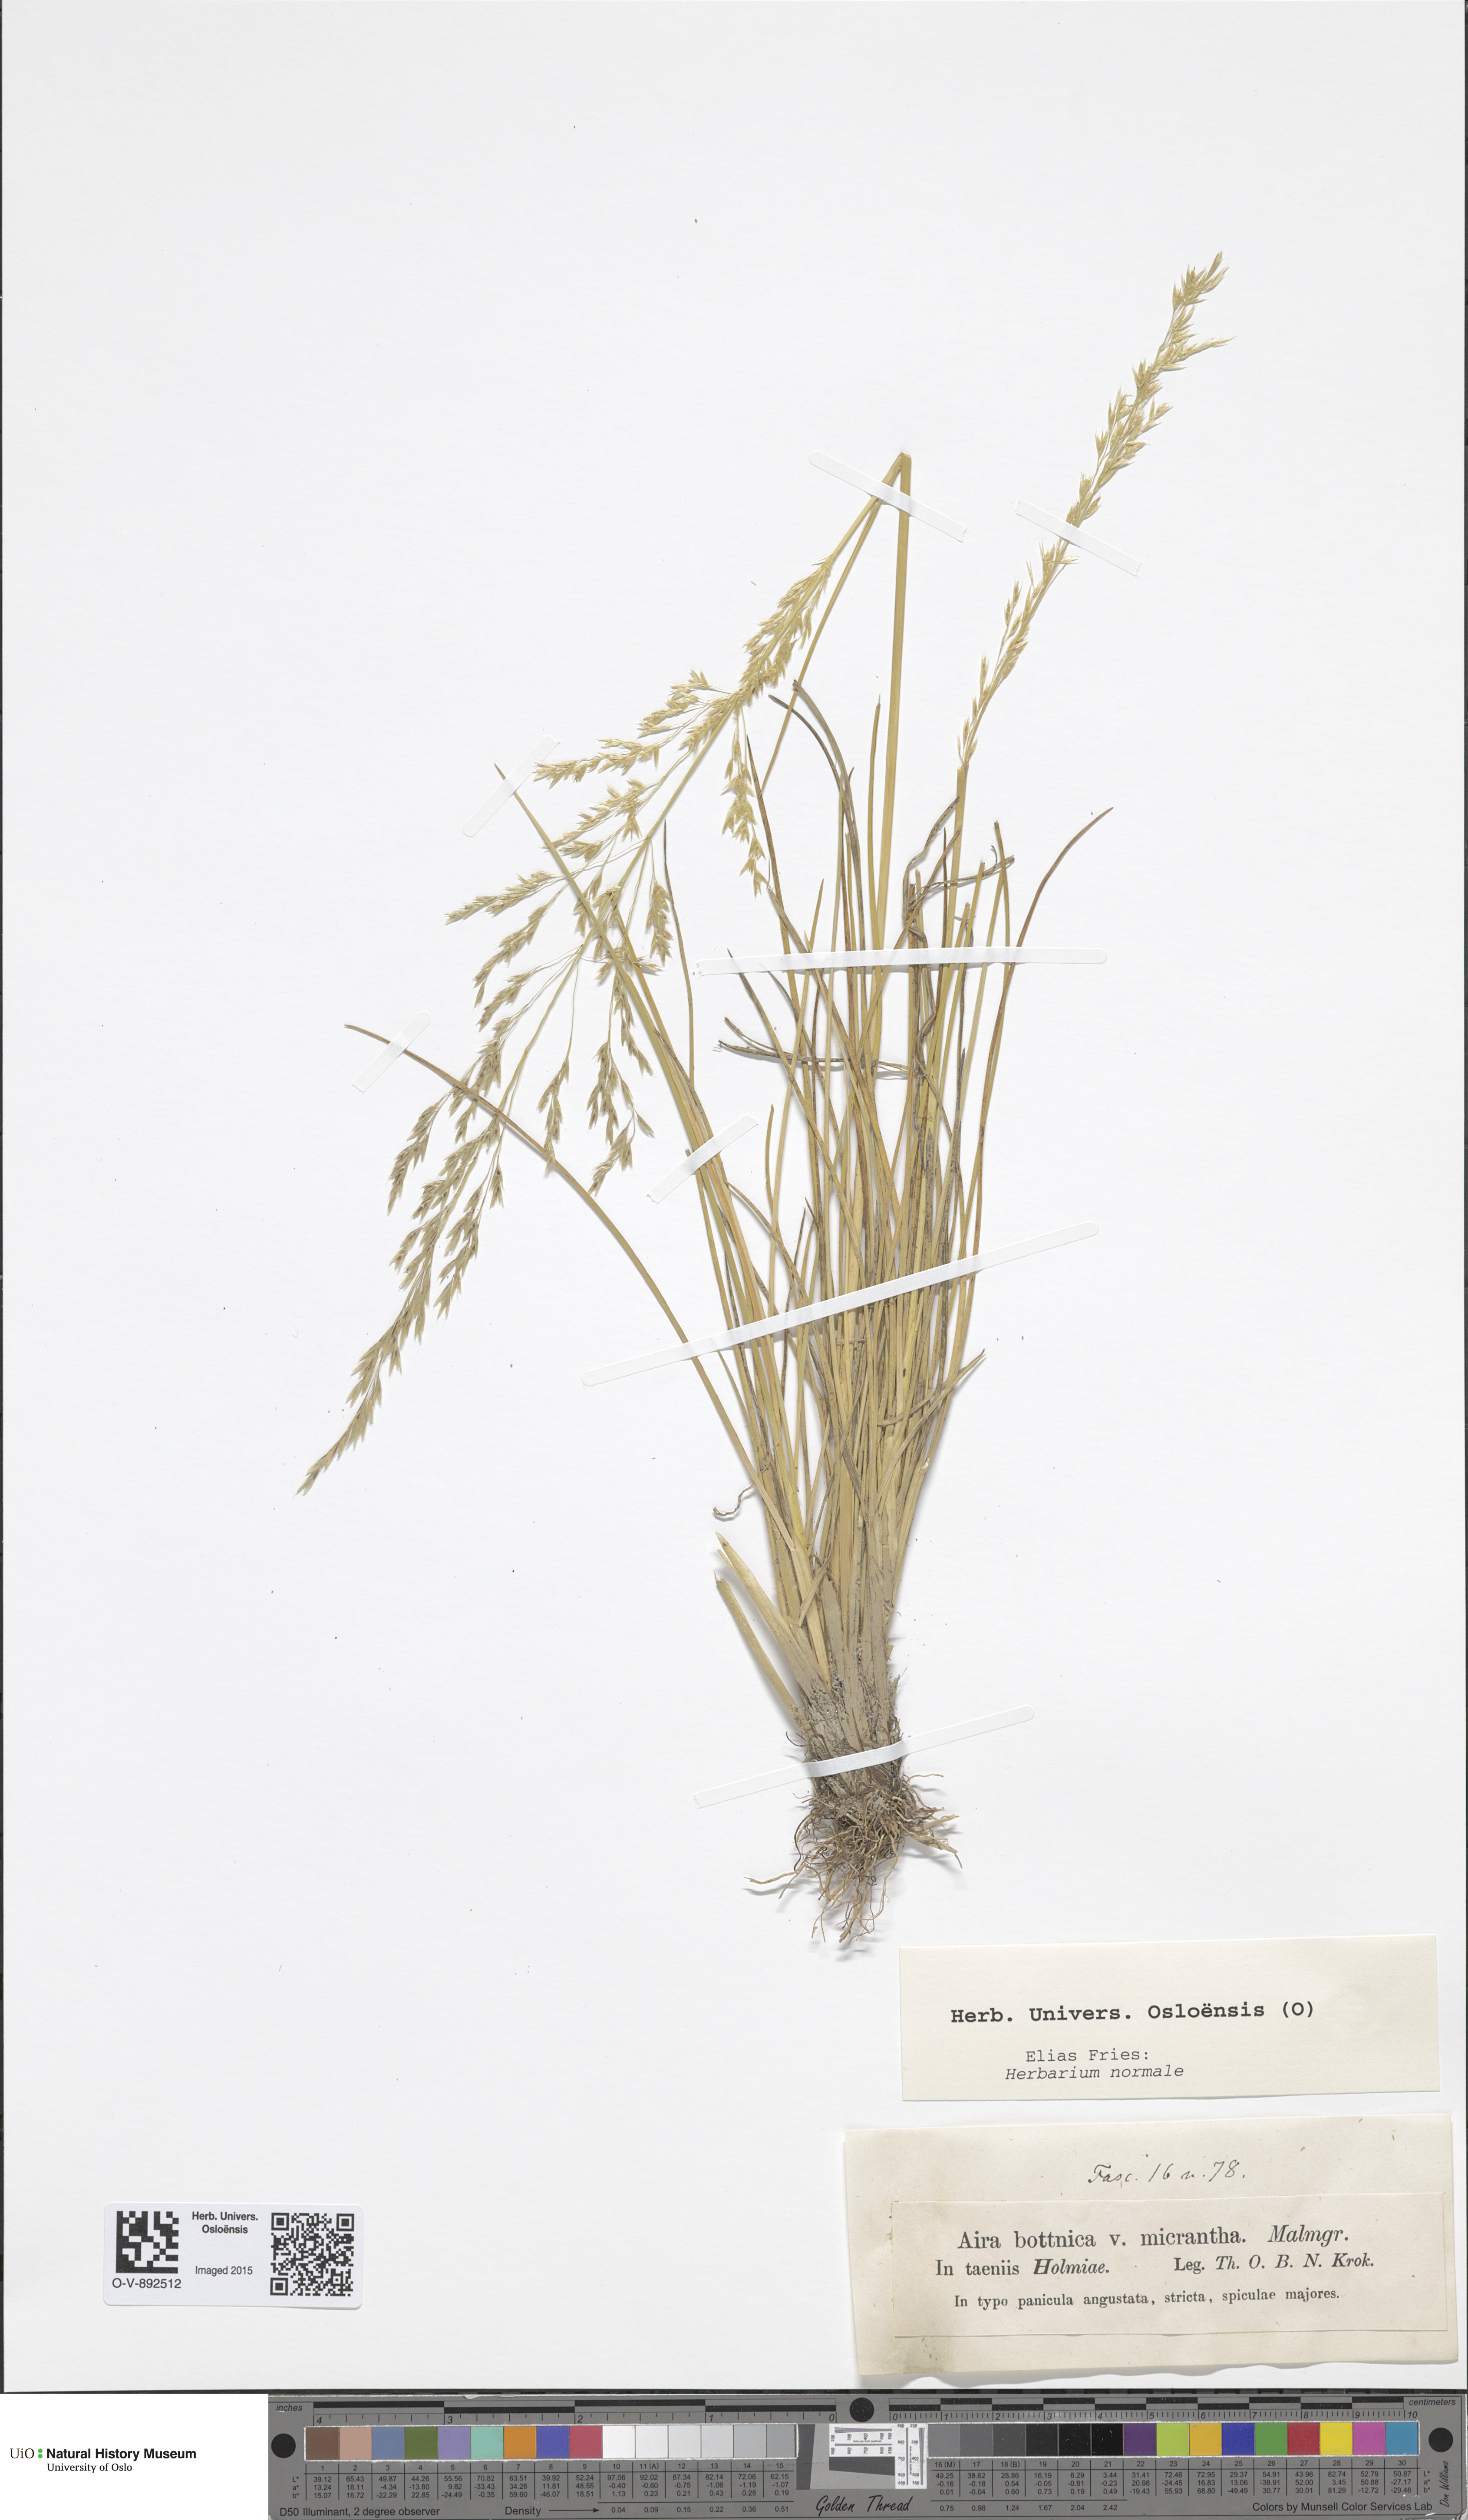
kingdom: Plantae
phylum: Tracheophyta
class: Liliopsida
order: Poales
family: Poaceae
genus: Deschampsia
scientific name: Deschampsia cespitosa
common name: Tufted hair-grass
